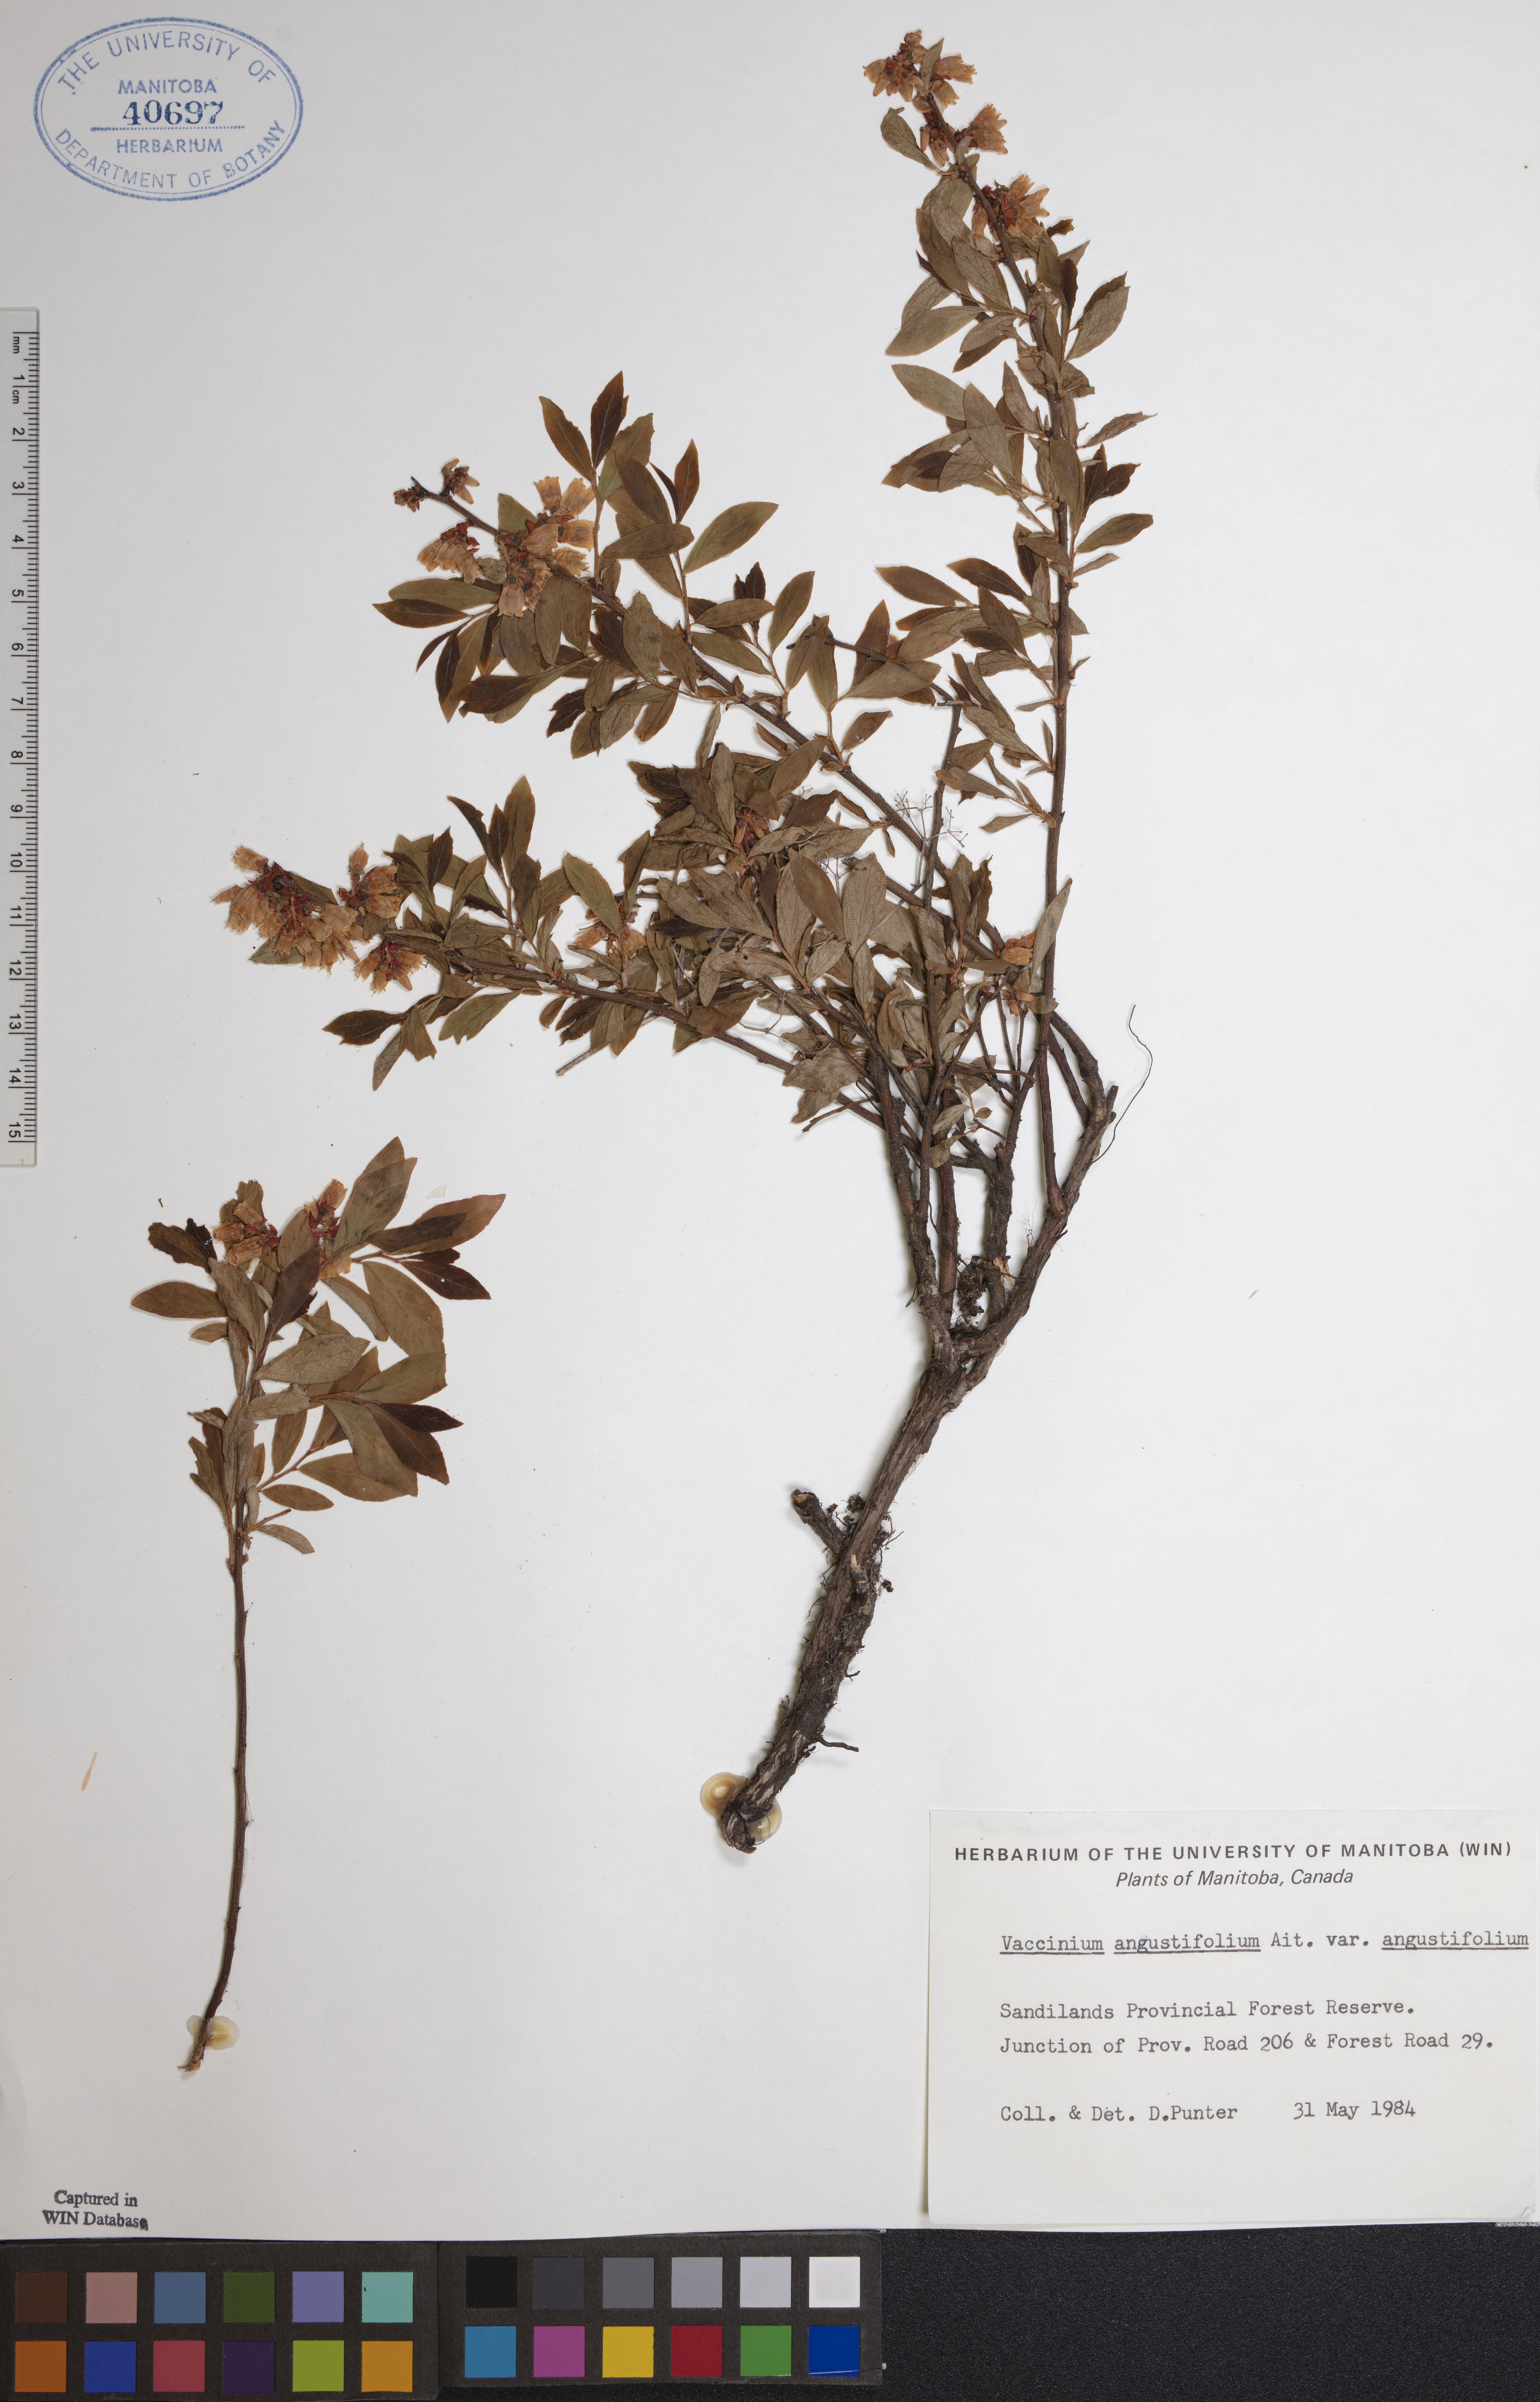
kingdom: Plantae
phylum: Tracheophyta
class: Magnoliopsida
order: Ericales
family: Ericaceae
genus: Vaccinium
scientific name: Vaccinium angustifolium
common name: Early lowbush blueberry
